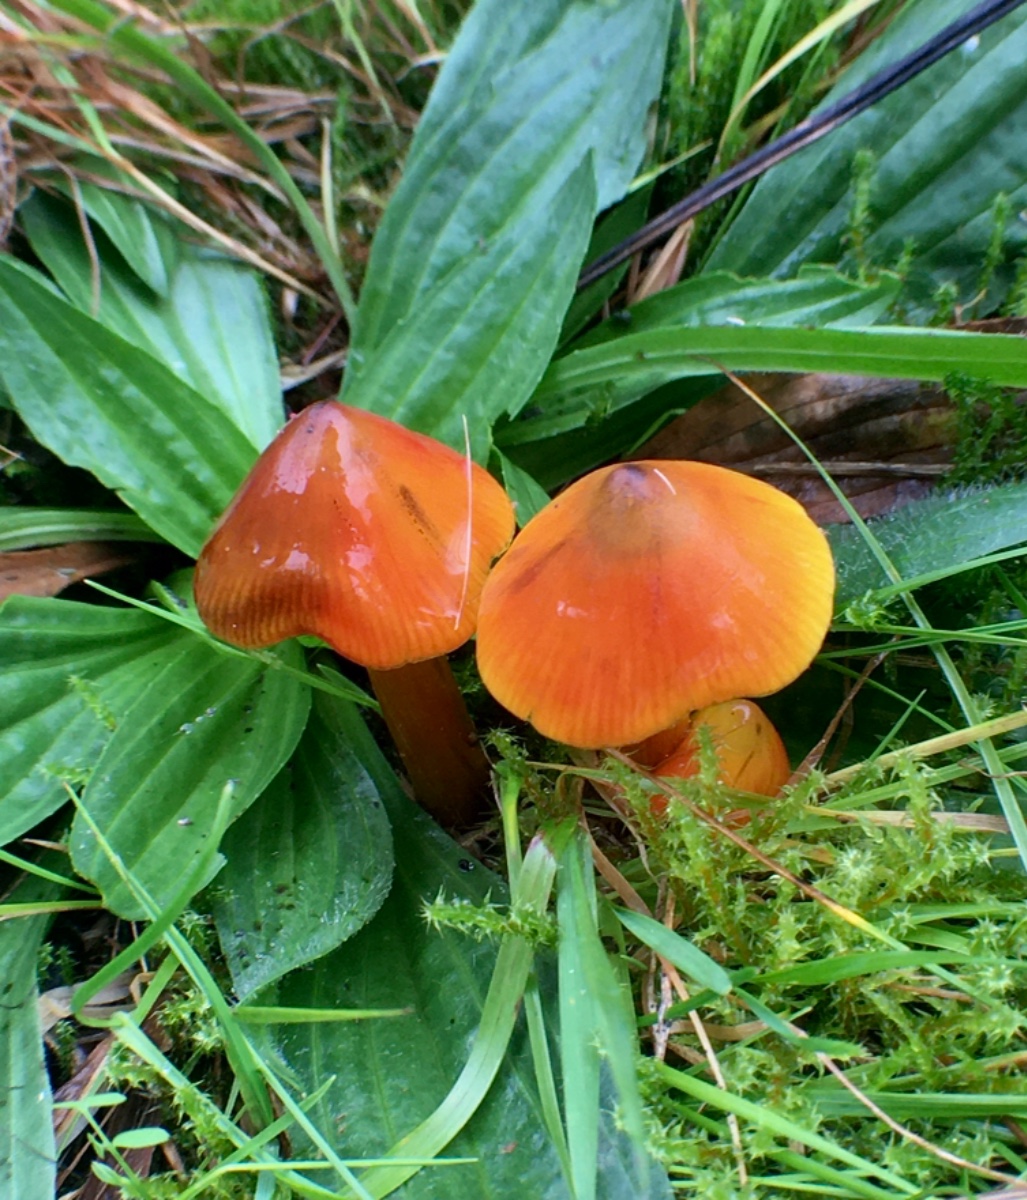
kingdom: Fungi
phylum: Basidiomycota
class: Agaricomycetes
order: Agaricales
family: Hygrophoraceae
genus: Hygrocybe
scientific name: Hygrocybe conica
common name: kegle-vokshat
